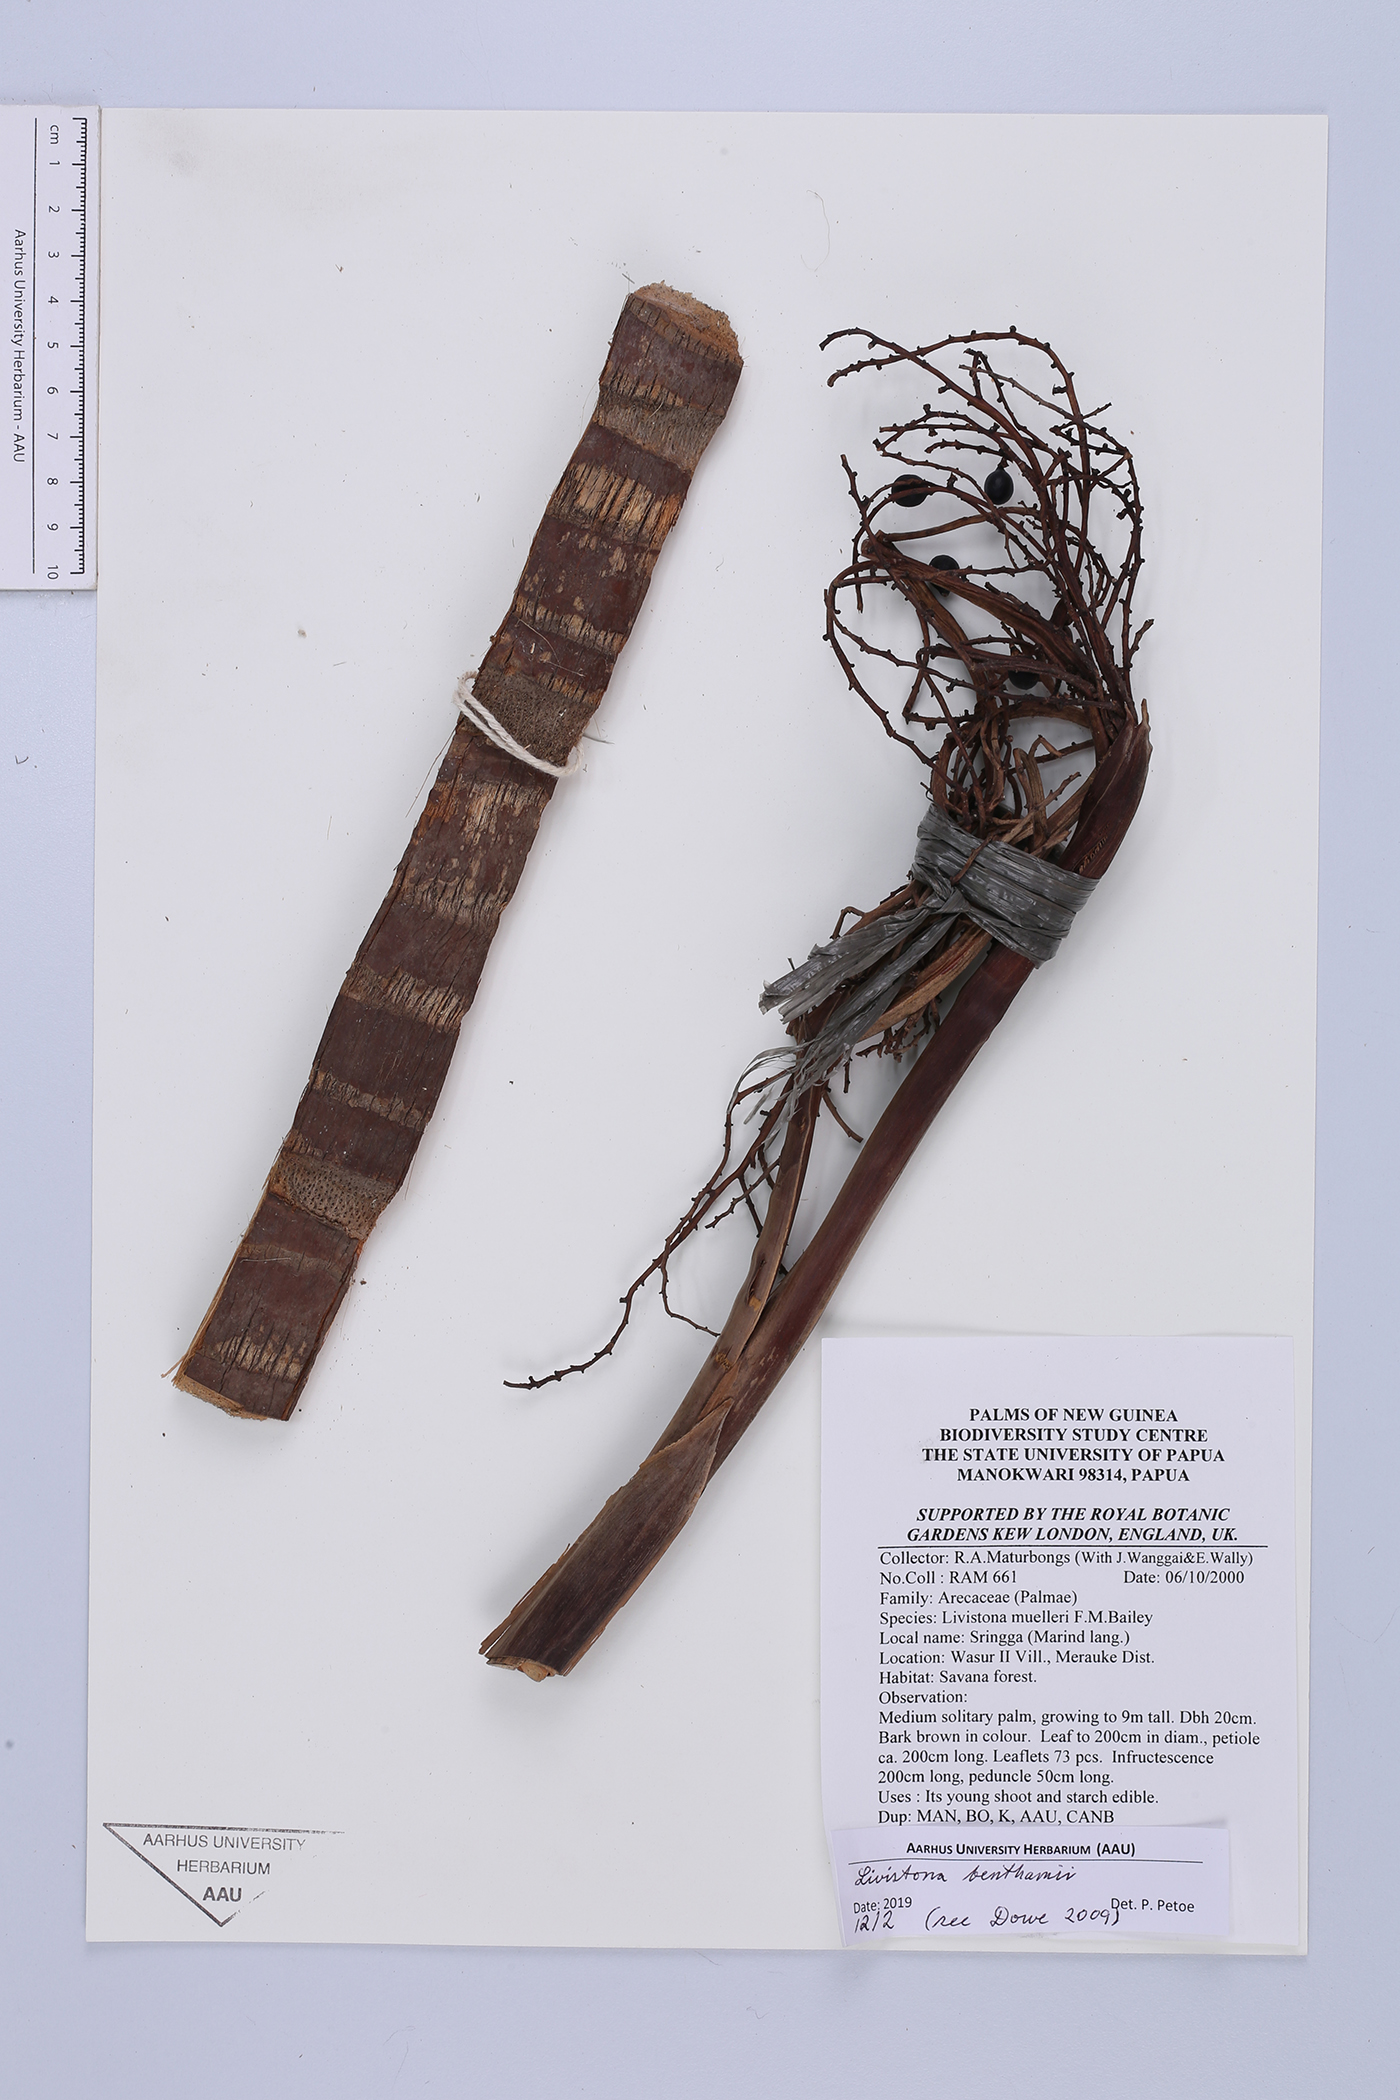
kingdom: Plantae
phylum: Tracheophyta
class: Liliopsida
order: Arecales
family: Arecaceae
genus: Livistona
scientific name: Livistona benthamii
